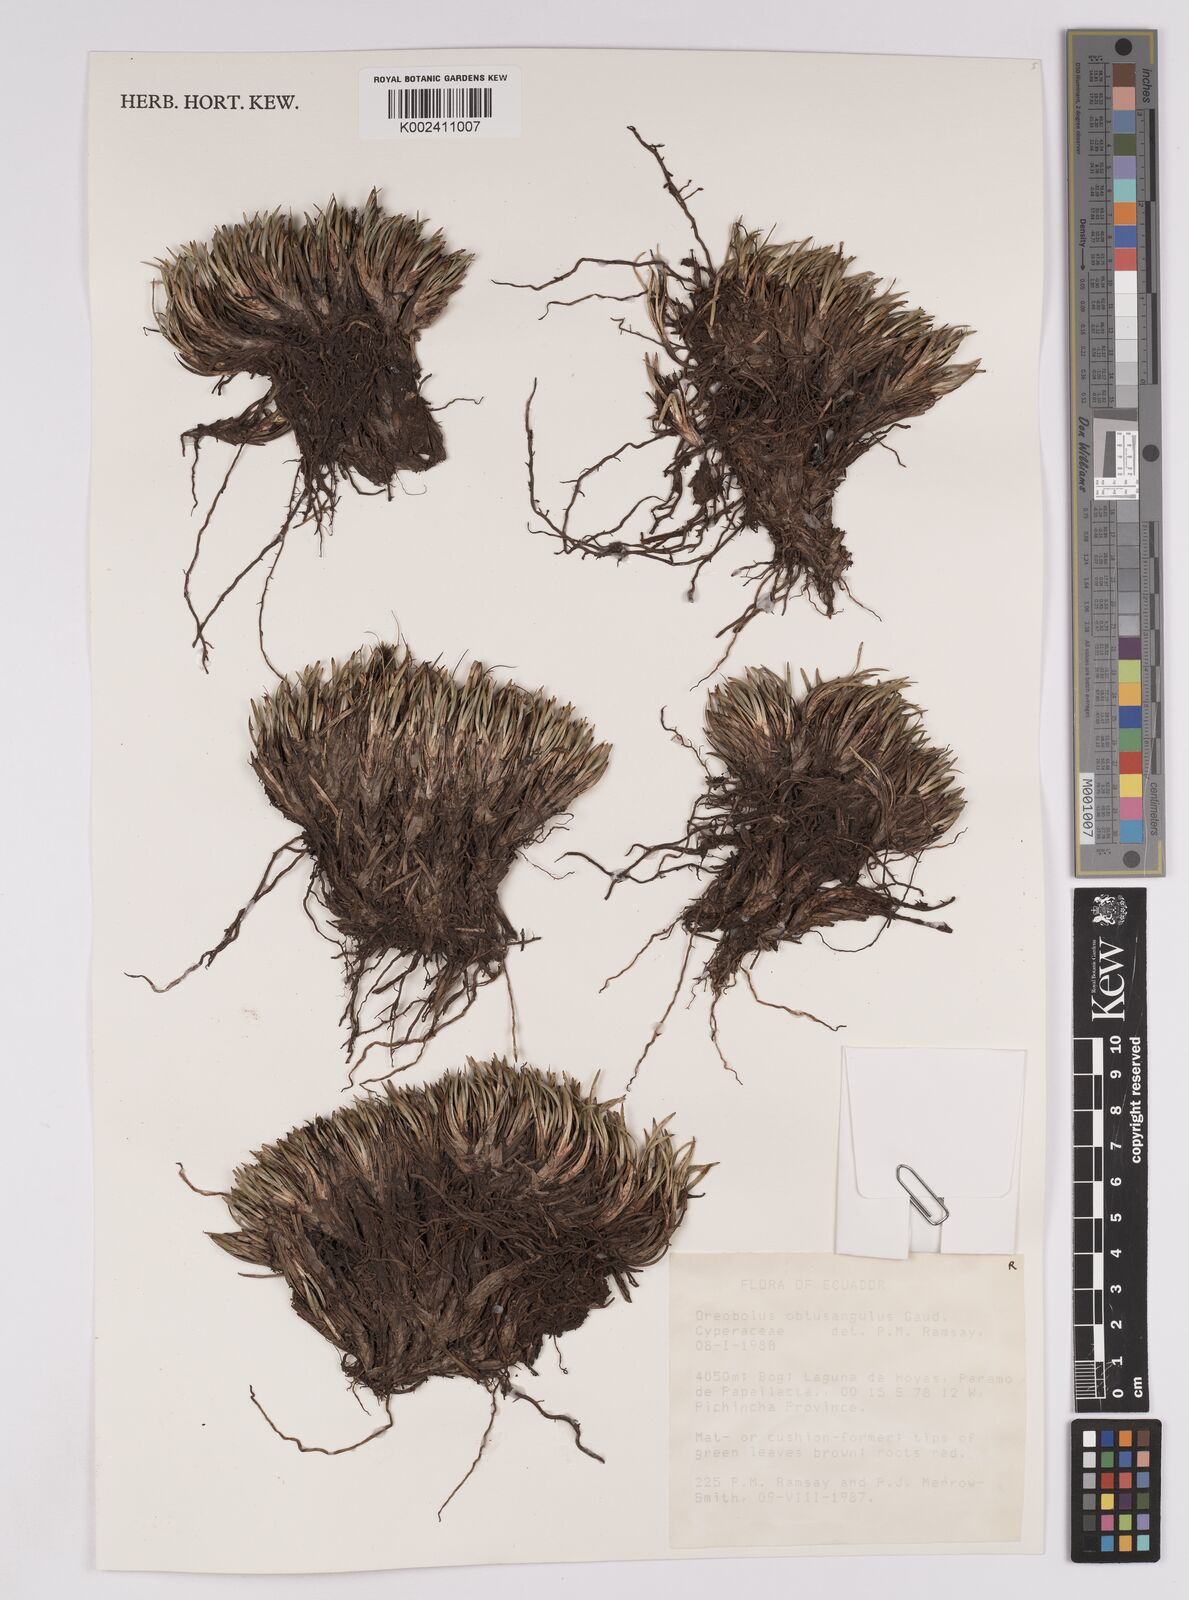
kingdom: Plantae
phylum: Tracheophyta
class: Liliopsida
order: Poales
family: Cyperaceae
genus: Oreobolus
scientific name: Oreobolus obtusangulus
